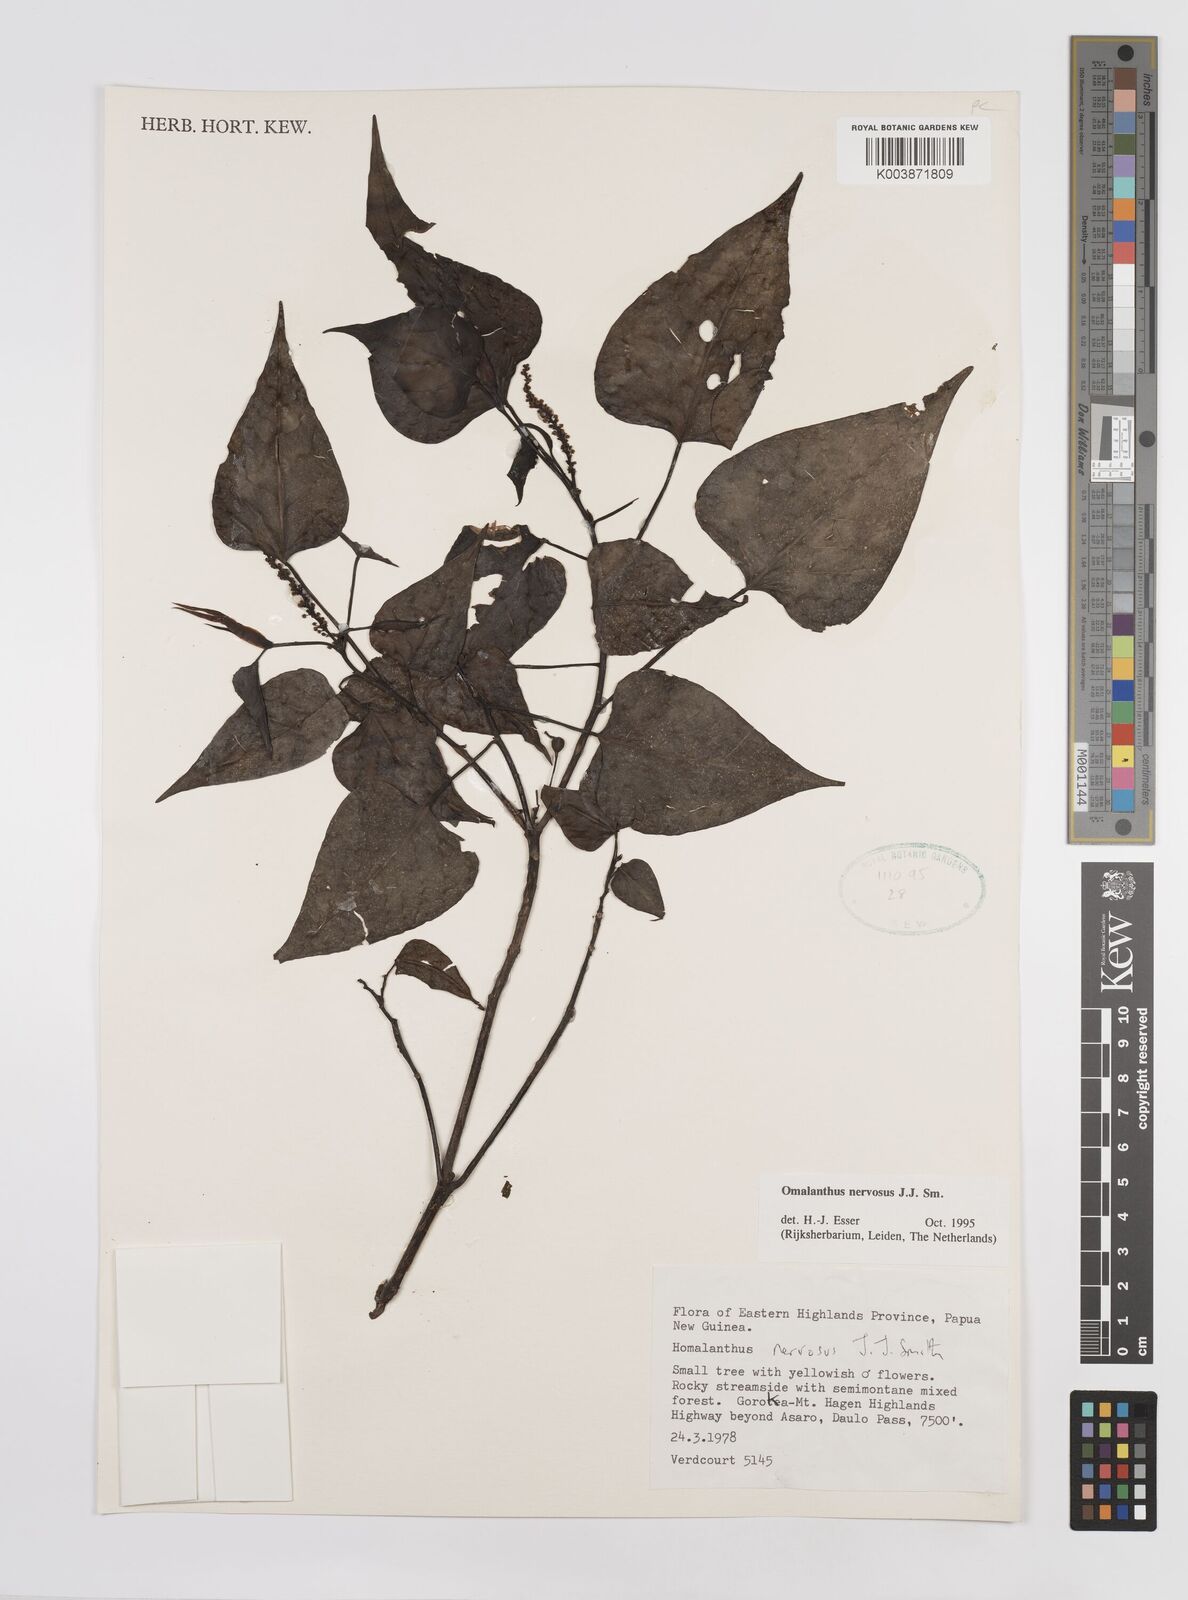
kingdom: Plantae
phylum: Tracheophyta
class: Magnoliopsida
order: Malpighiales
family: Euphorbiaceae
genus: Homalanthus
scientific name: Homalanthus nervosus
